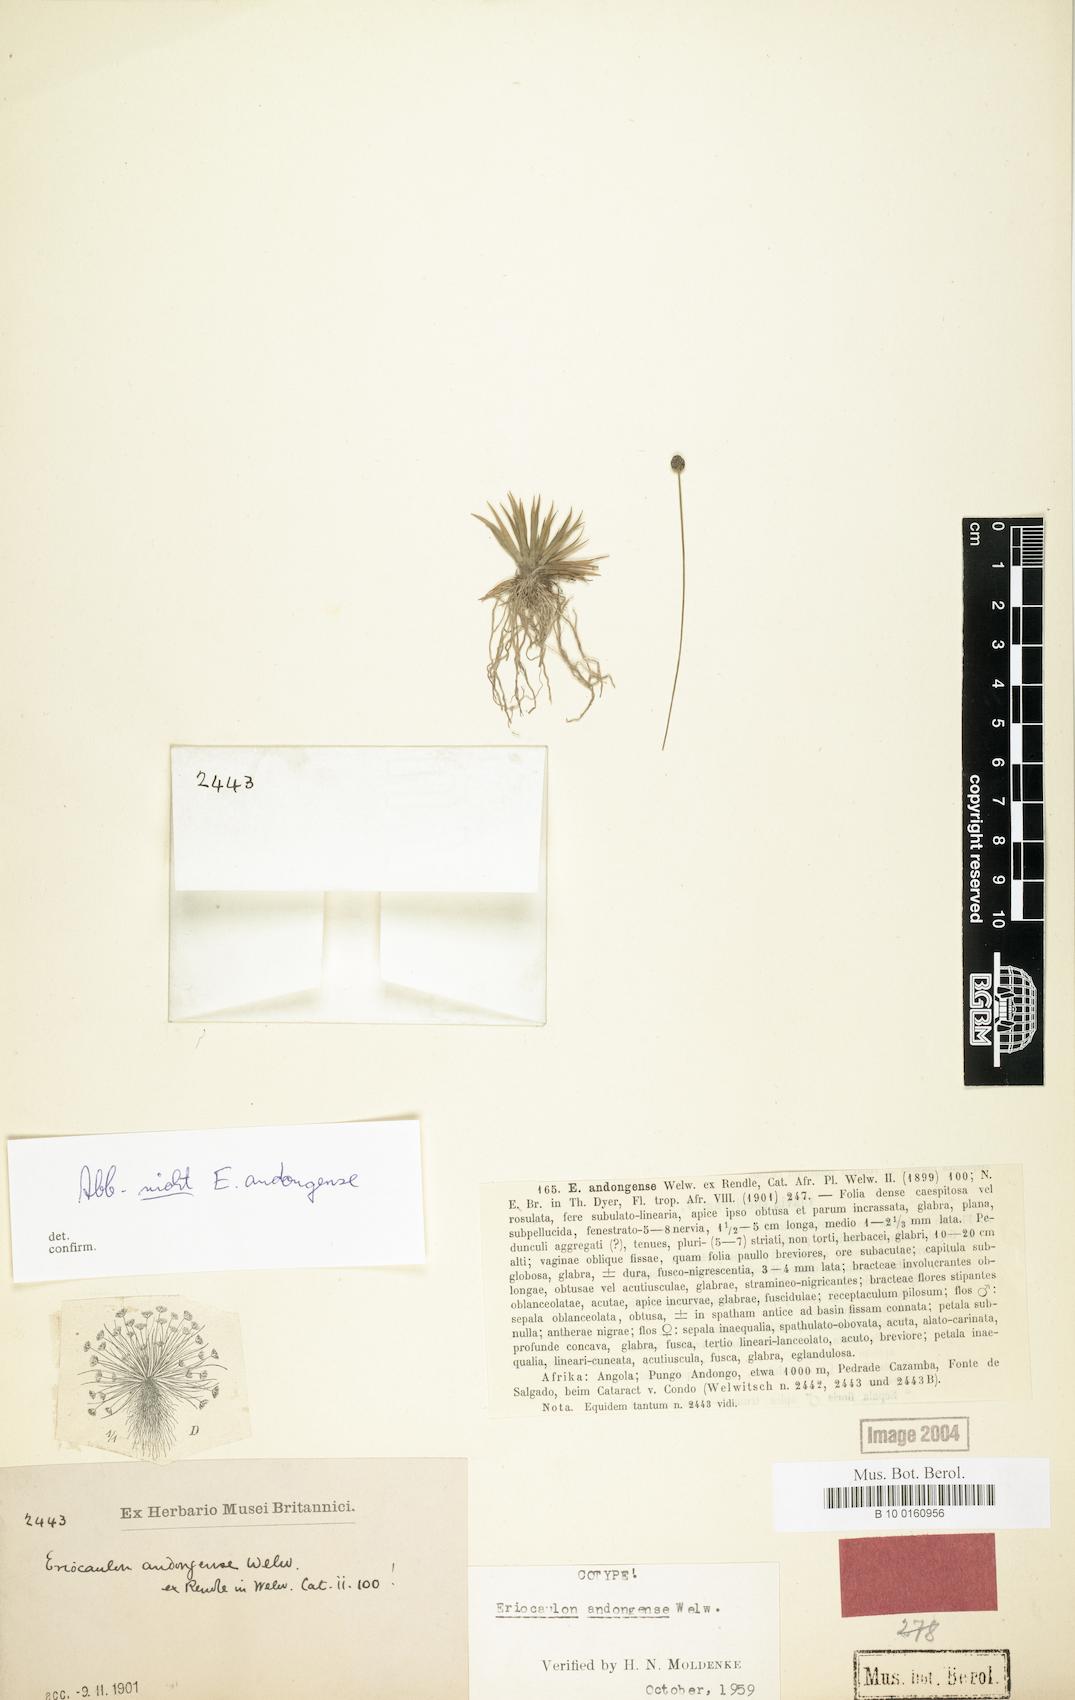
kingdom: Plantae
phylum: Tracheophyta
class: Liliopsida
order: Poales
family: Eriocaulaceae
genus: Eriocaulon
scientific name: Eriocaulon buchananii
